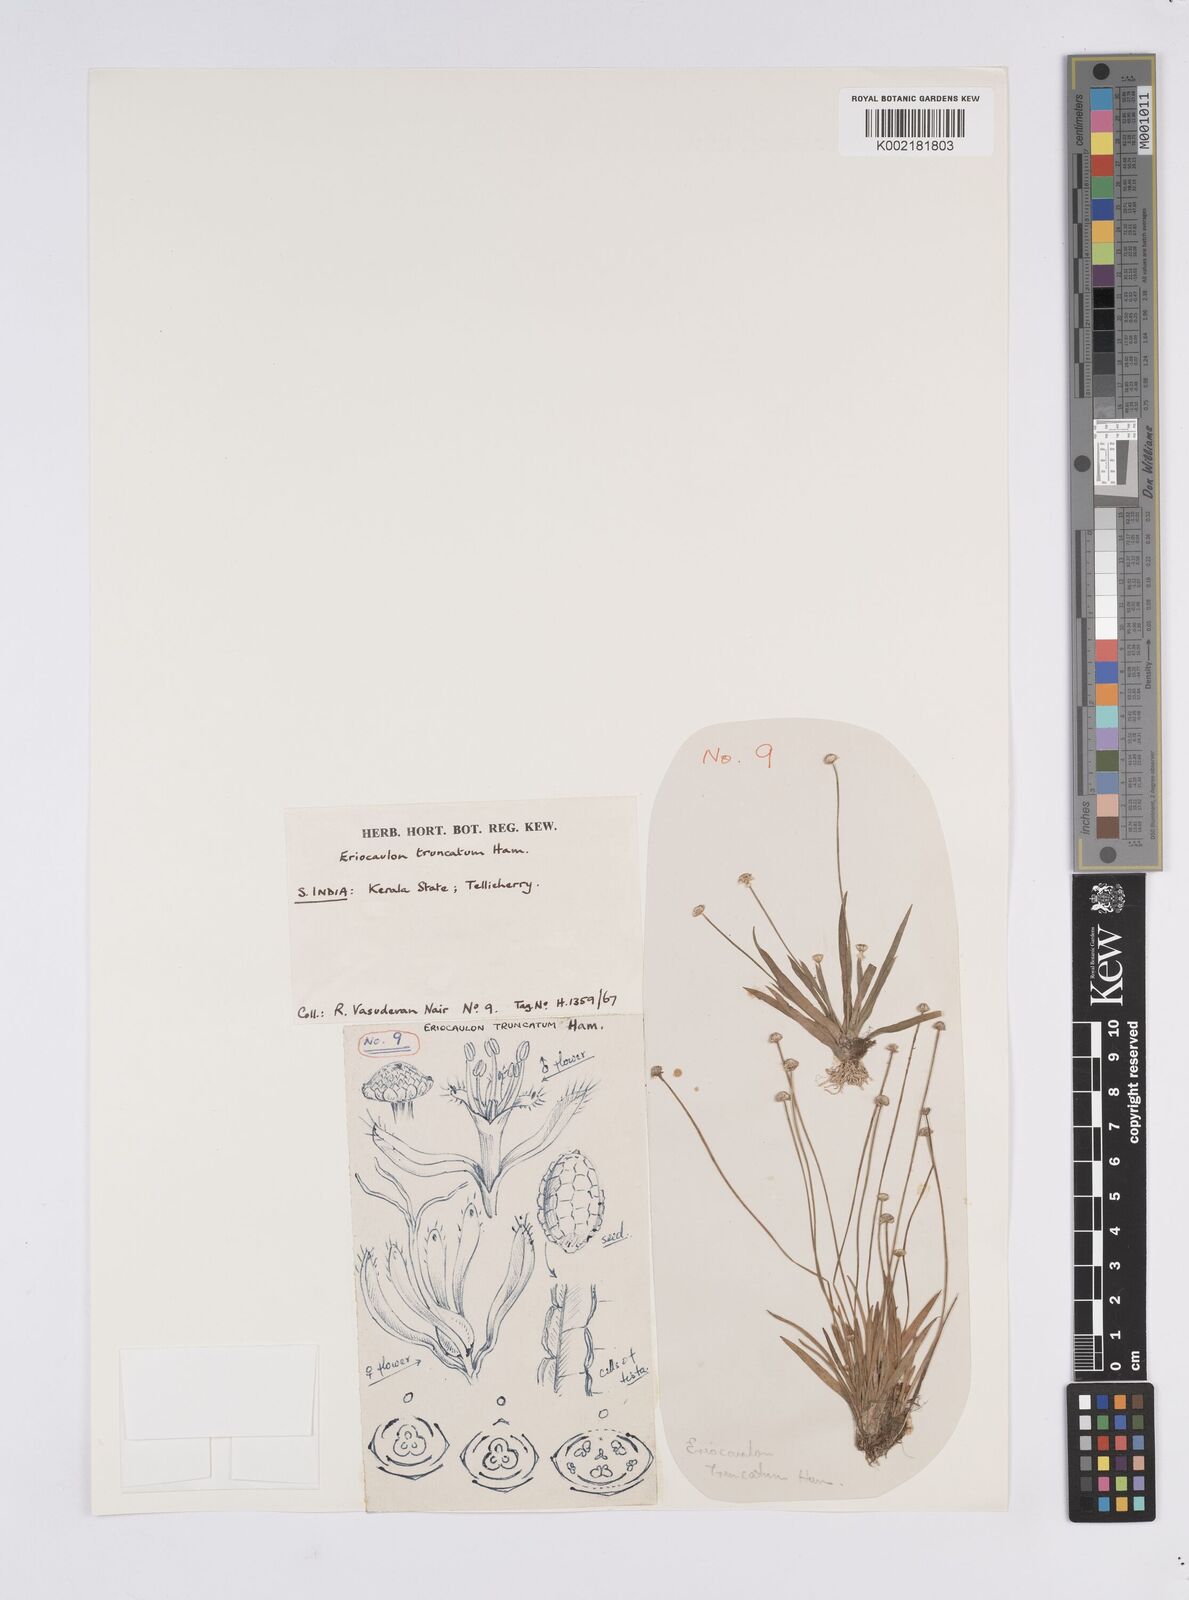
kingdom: Plantae
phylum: Tracheophyta
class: Liliopsida
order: Poales
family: Eriocaulaceae
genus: Eriocaulon
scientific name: Eriocaulon truncatum
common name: Short pipe-wort
